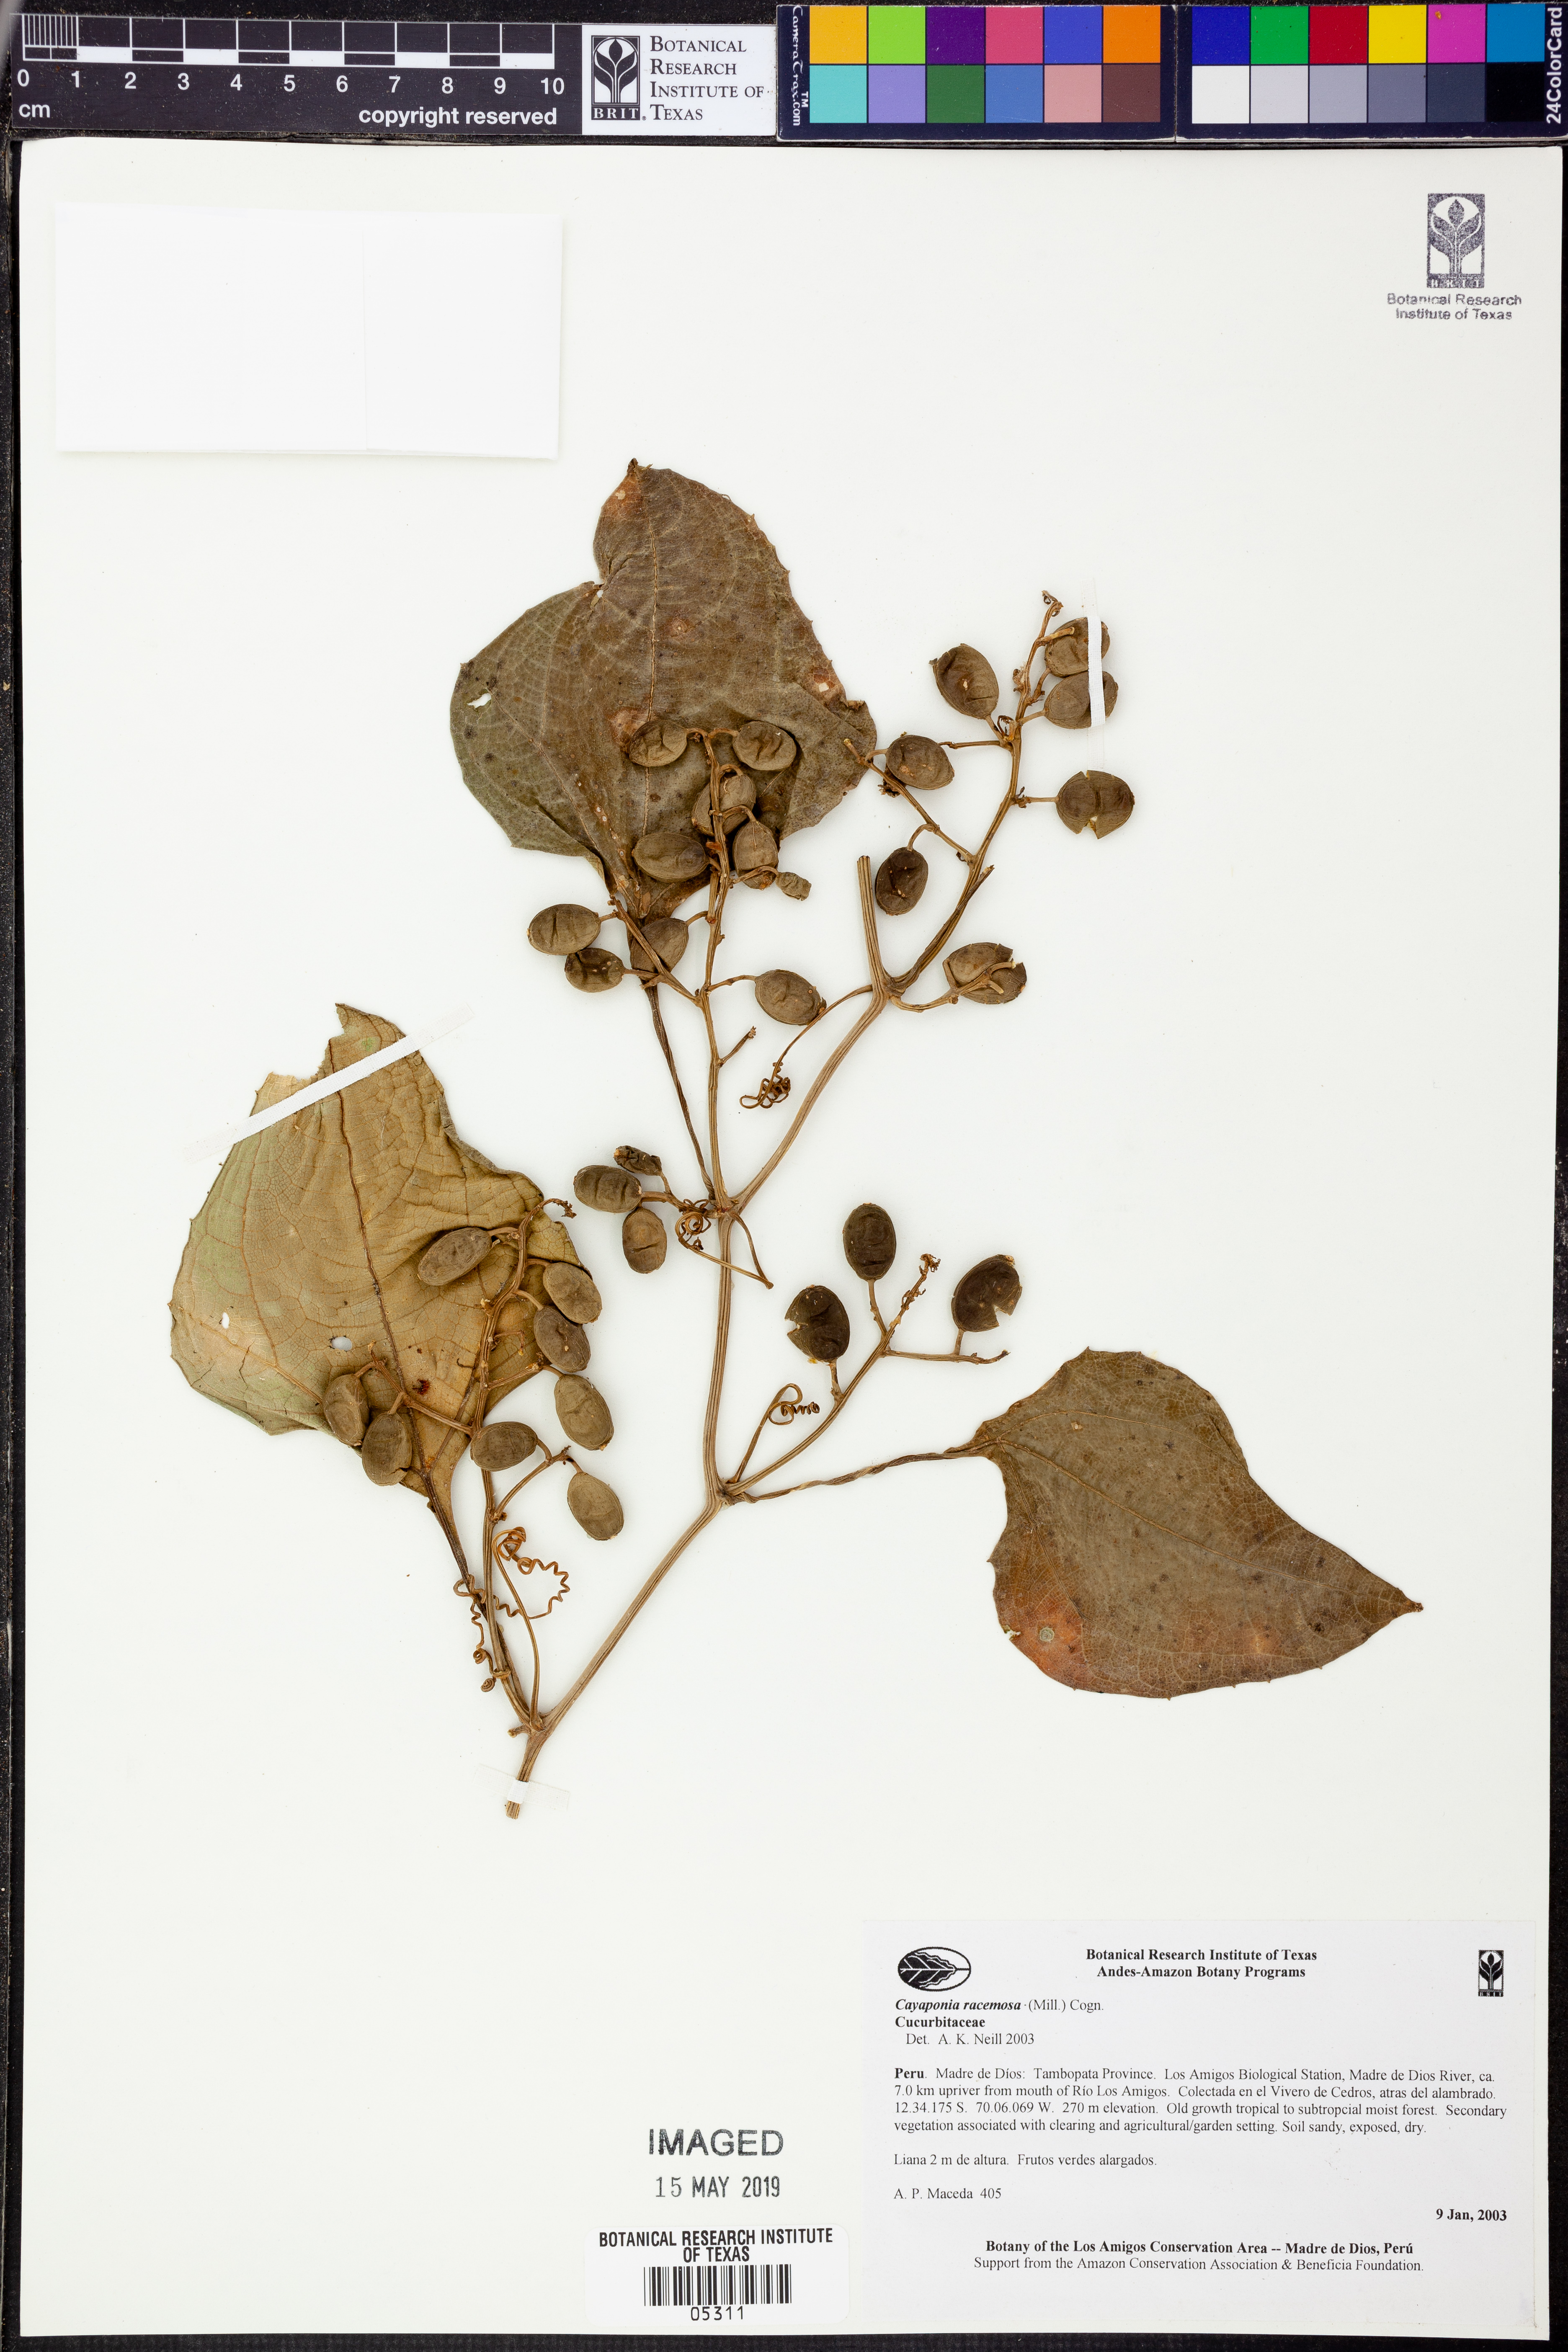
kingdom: Plantae
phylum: Tracheophyta
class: Magnoliopsida
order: Cucurbitales
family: Cucurbitaceae
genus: Cayaponia
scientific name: Cayaponia
